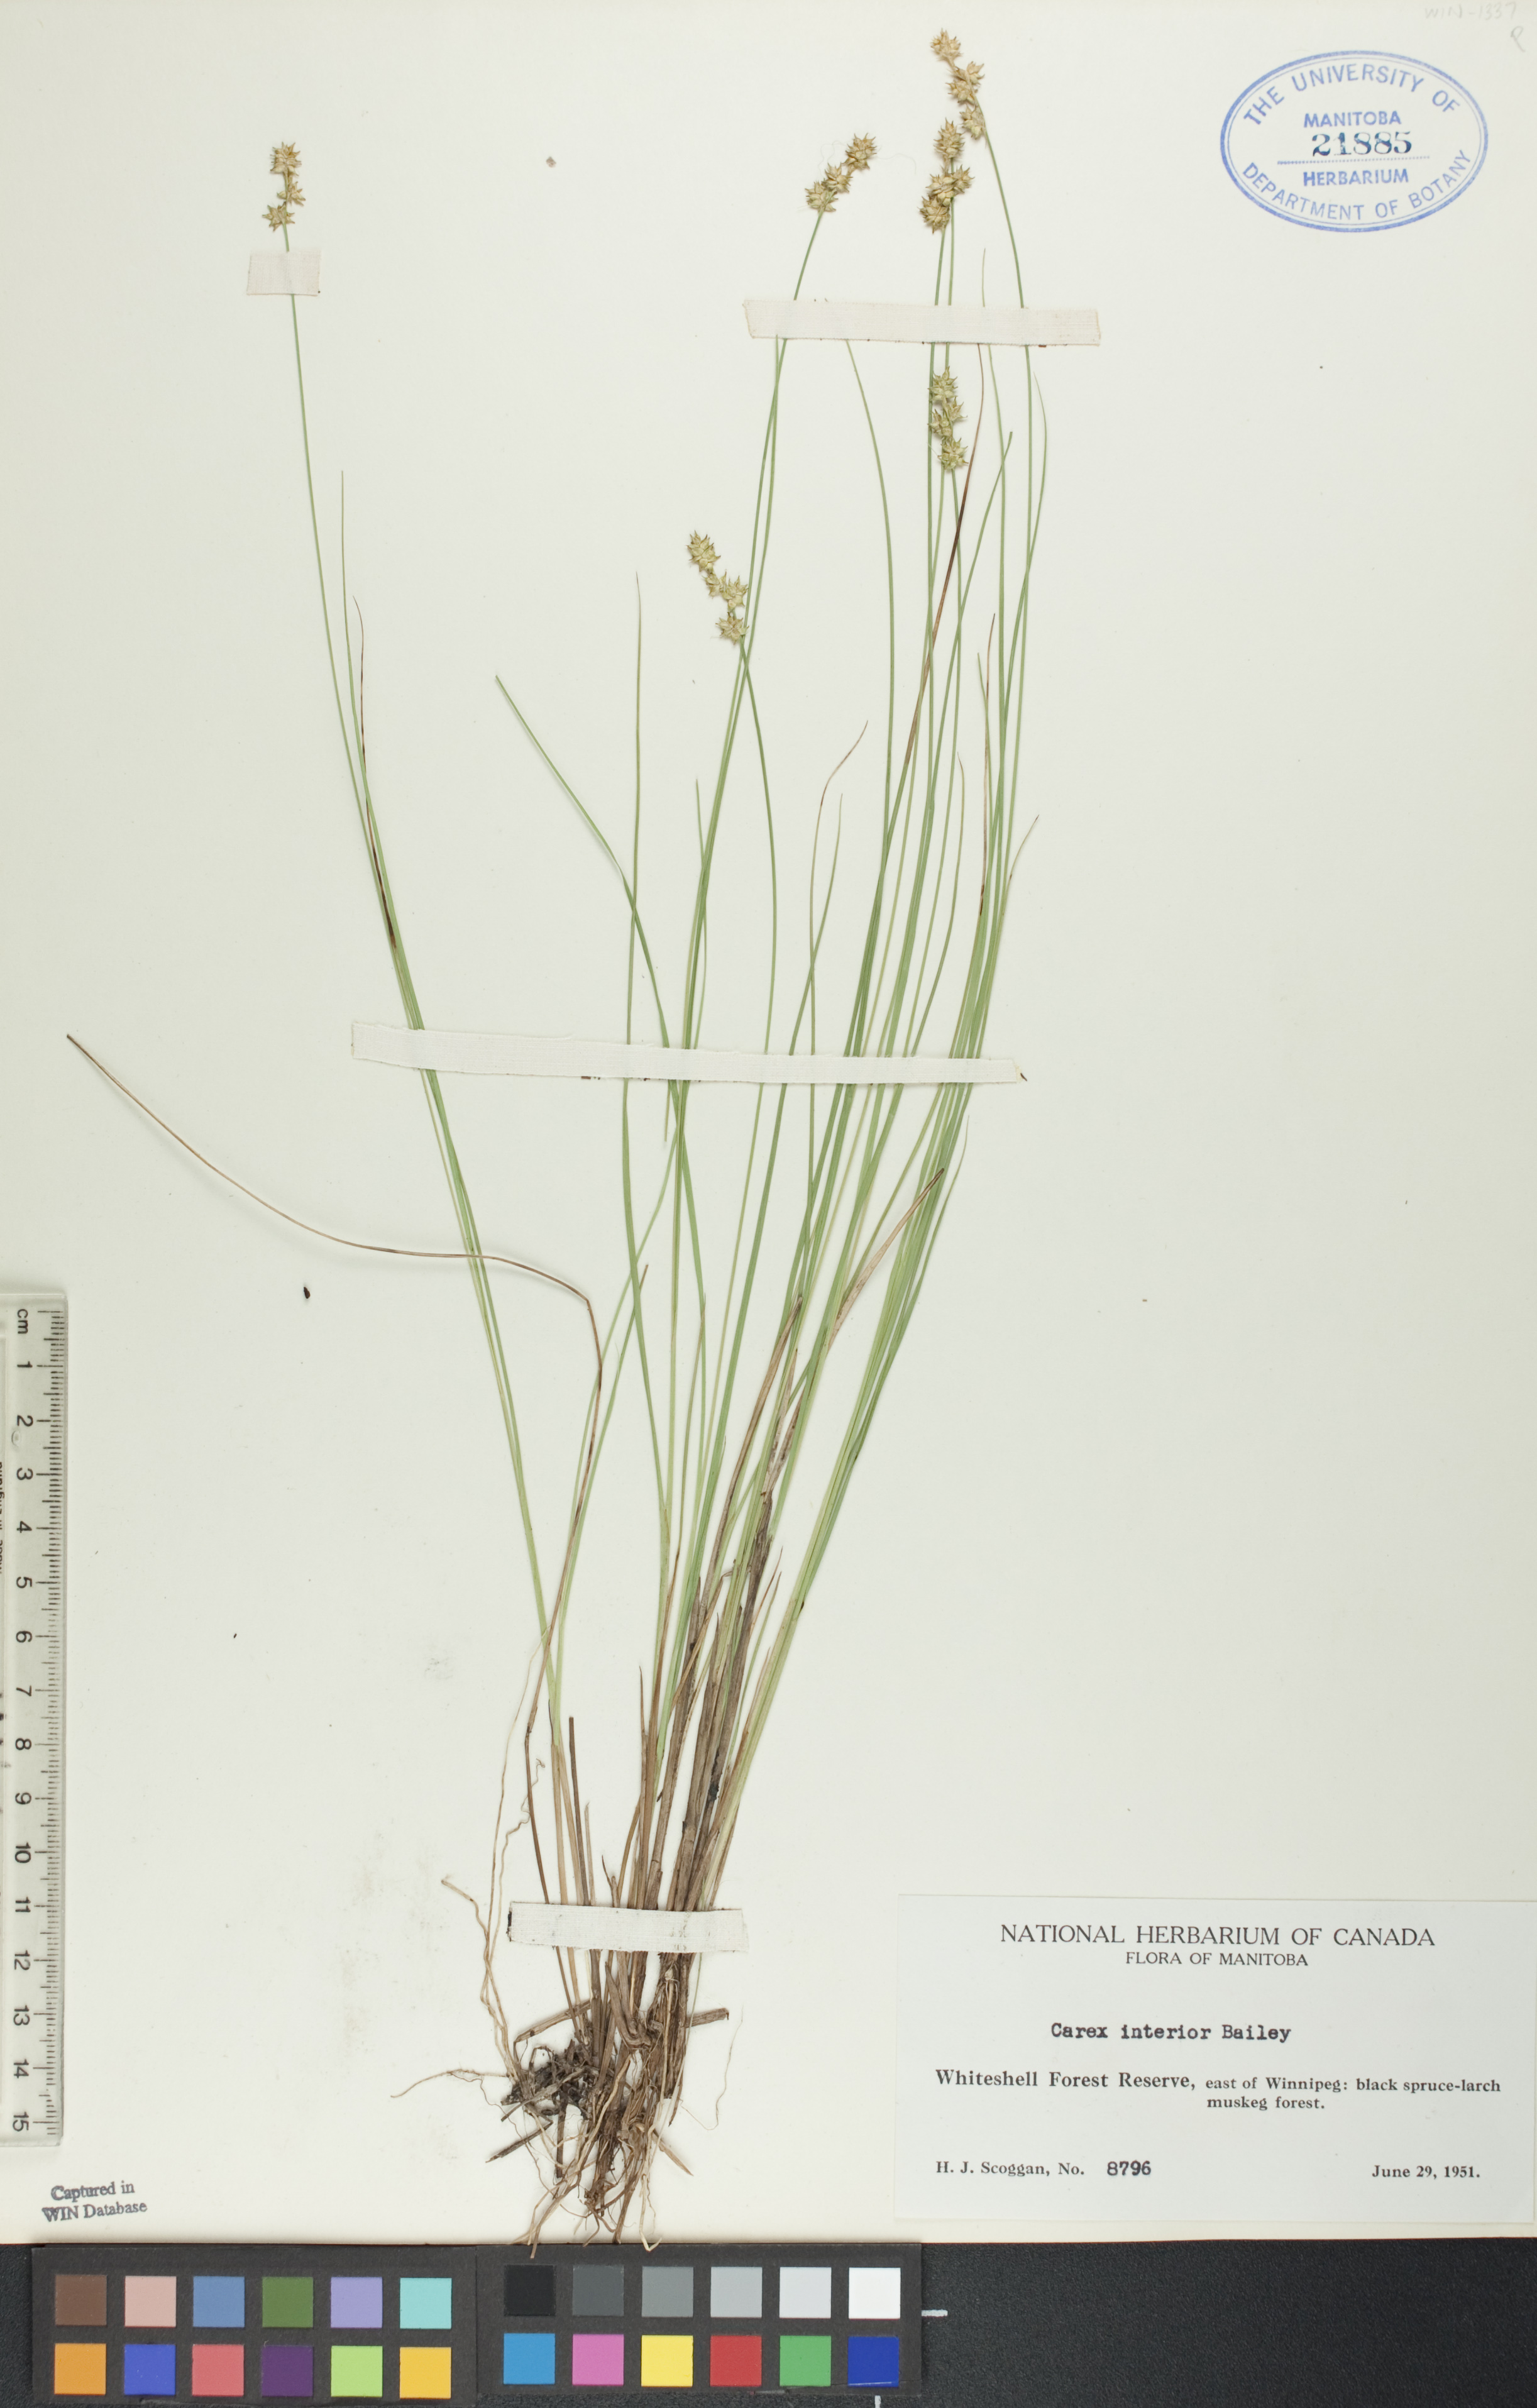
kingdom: Plantae
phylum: Tracheophyta
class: Liliopsida
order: Poales
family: Cyperaceae
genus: Carex
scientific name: Carex interior
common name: Inland sedge
